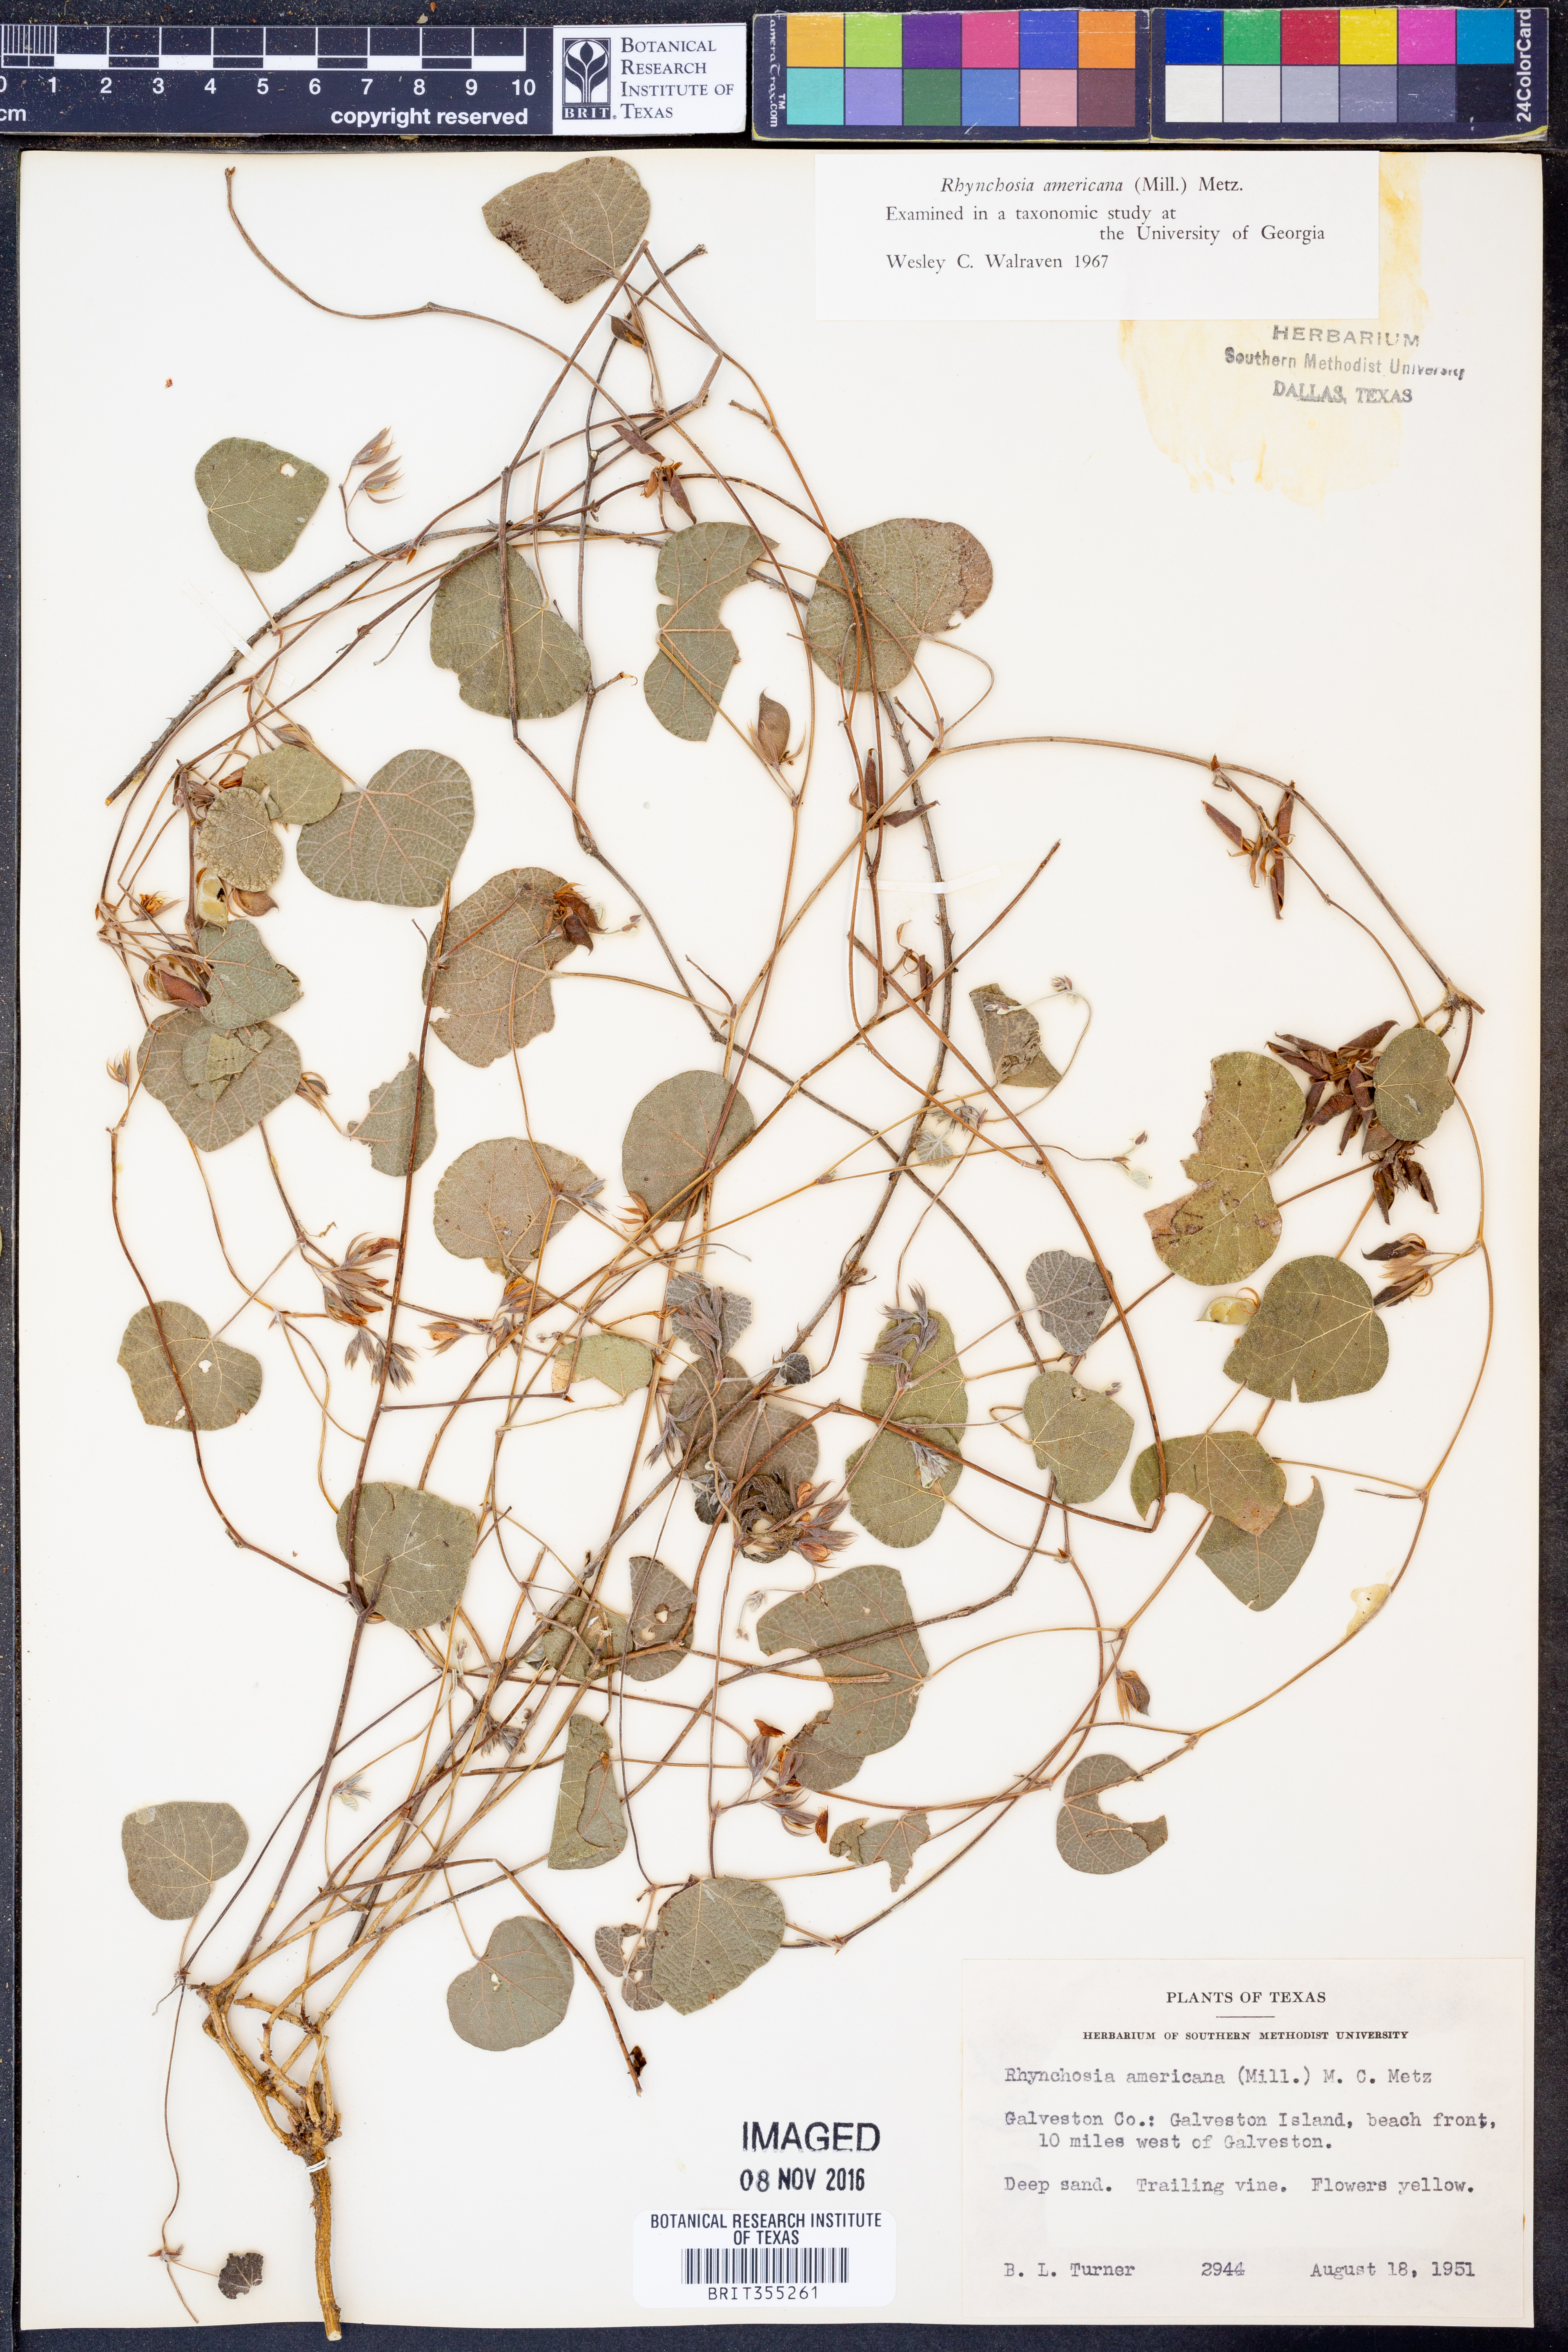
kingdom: Plantae
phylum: Tracheophyta
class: Magnoliopsida
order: Fabales
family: Fabaceae
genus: Rhynchosia
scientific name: Rhynchosia americana
